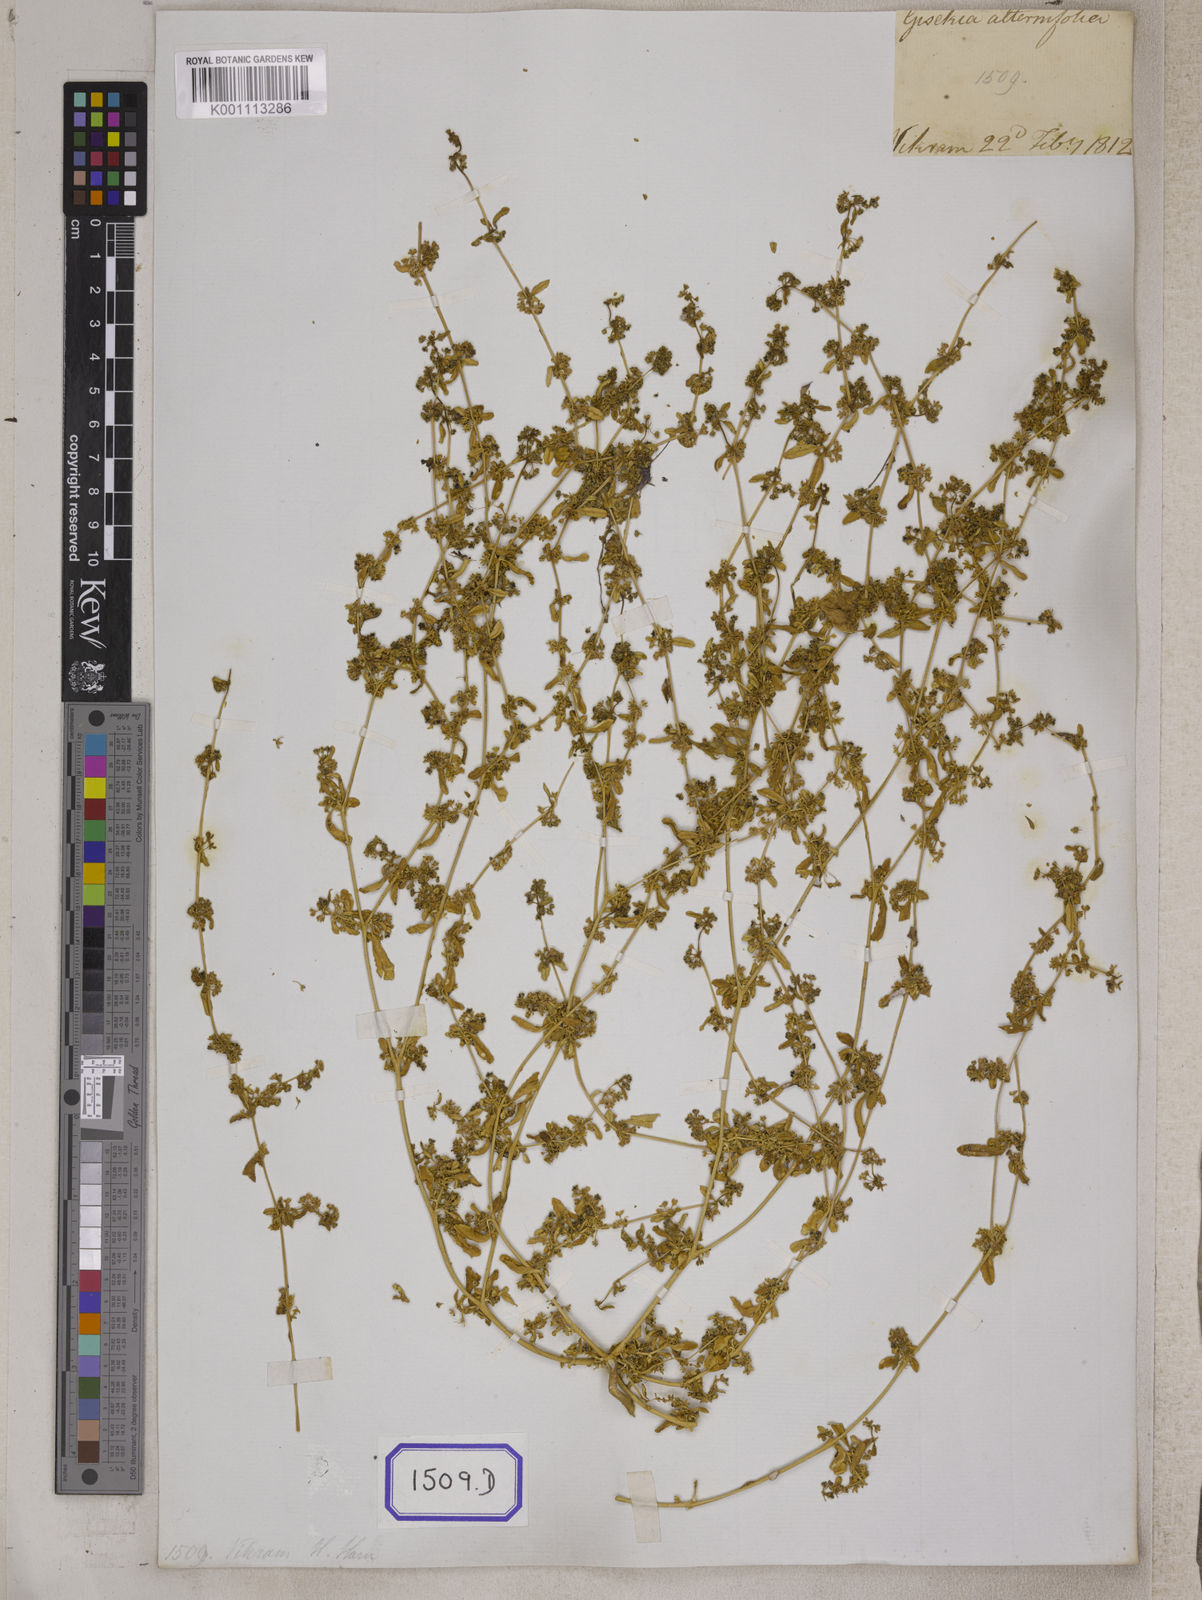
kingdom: Plantae
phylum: Tracheophyta
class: Magnoliopsida
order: Caryophyllales
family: Gisekiaceae
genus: Gisekia
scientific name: Gisekia
